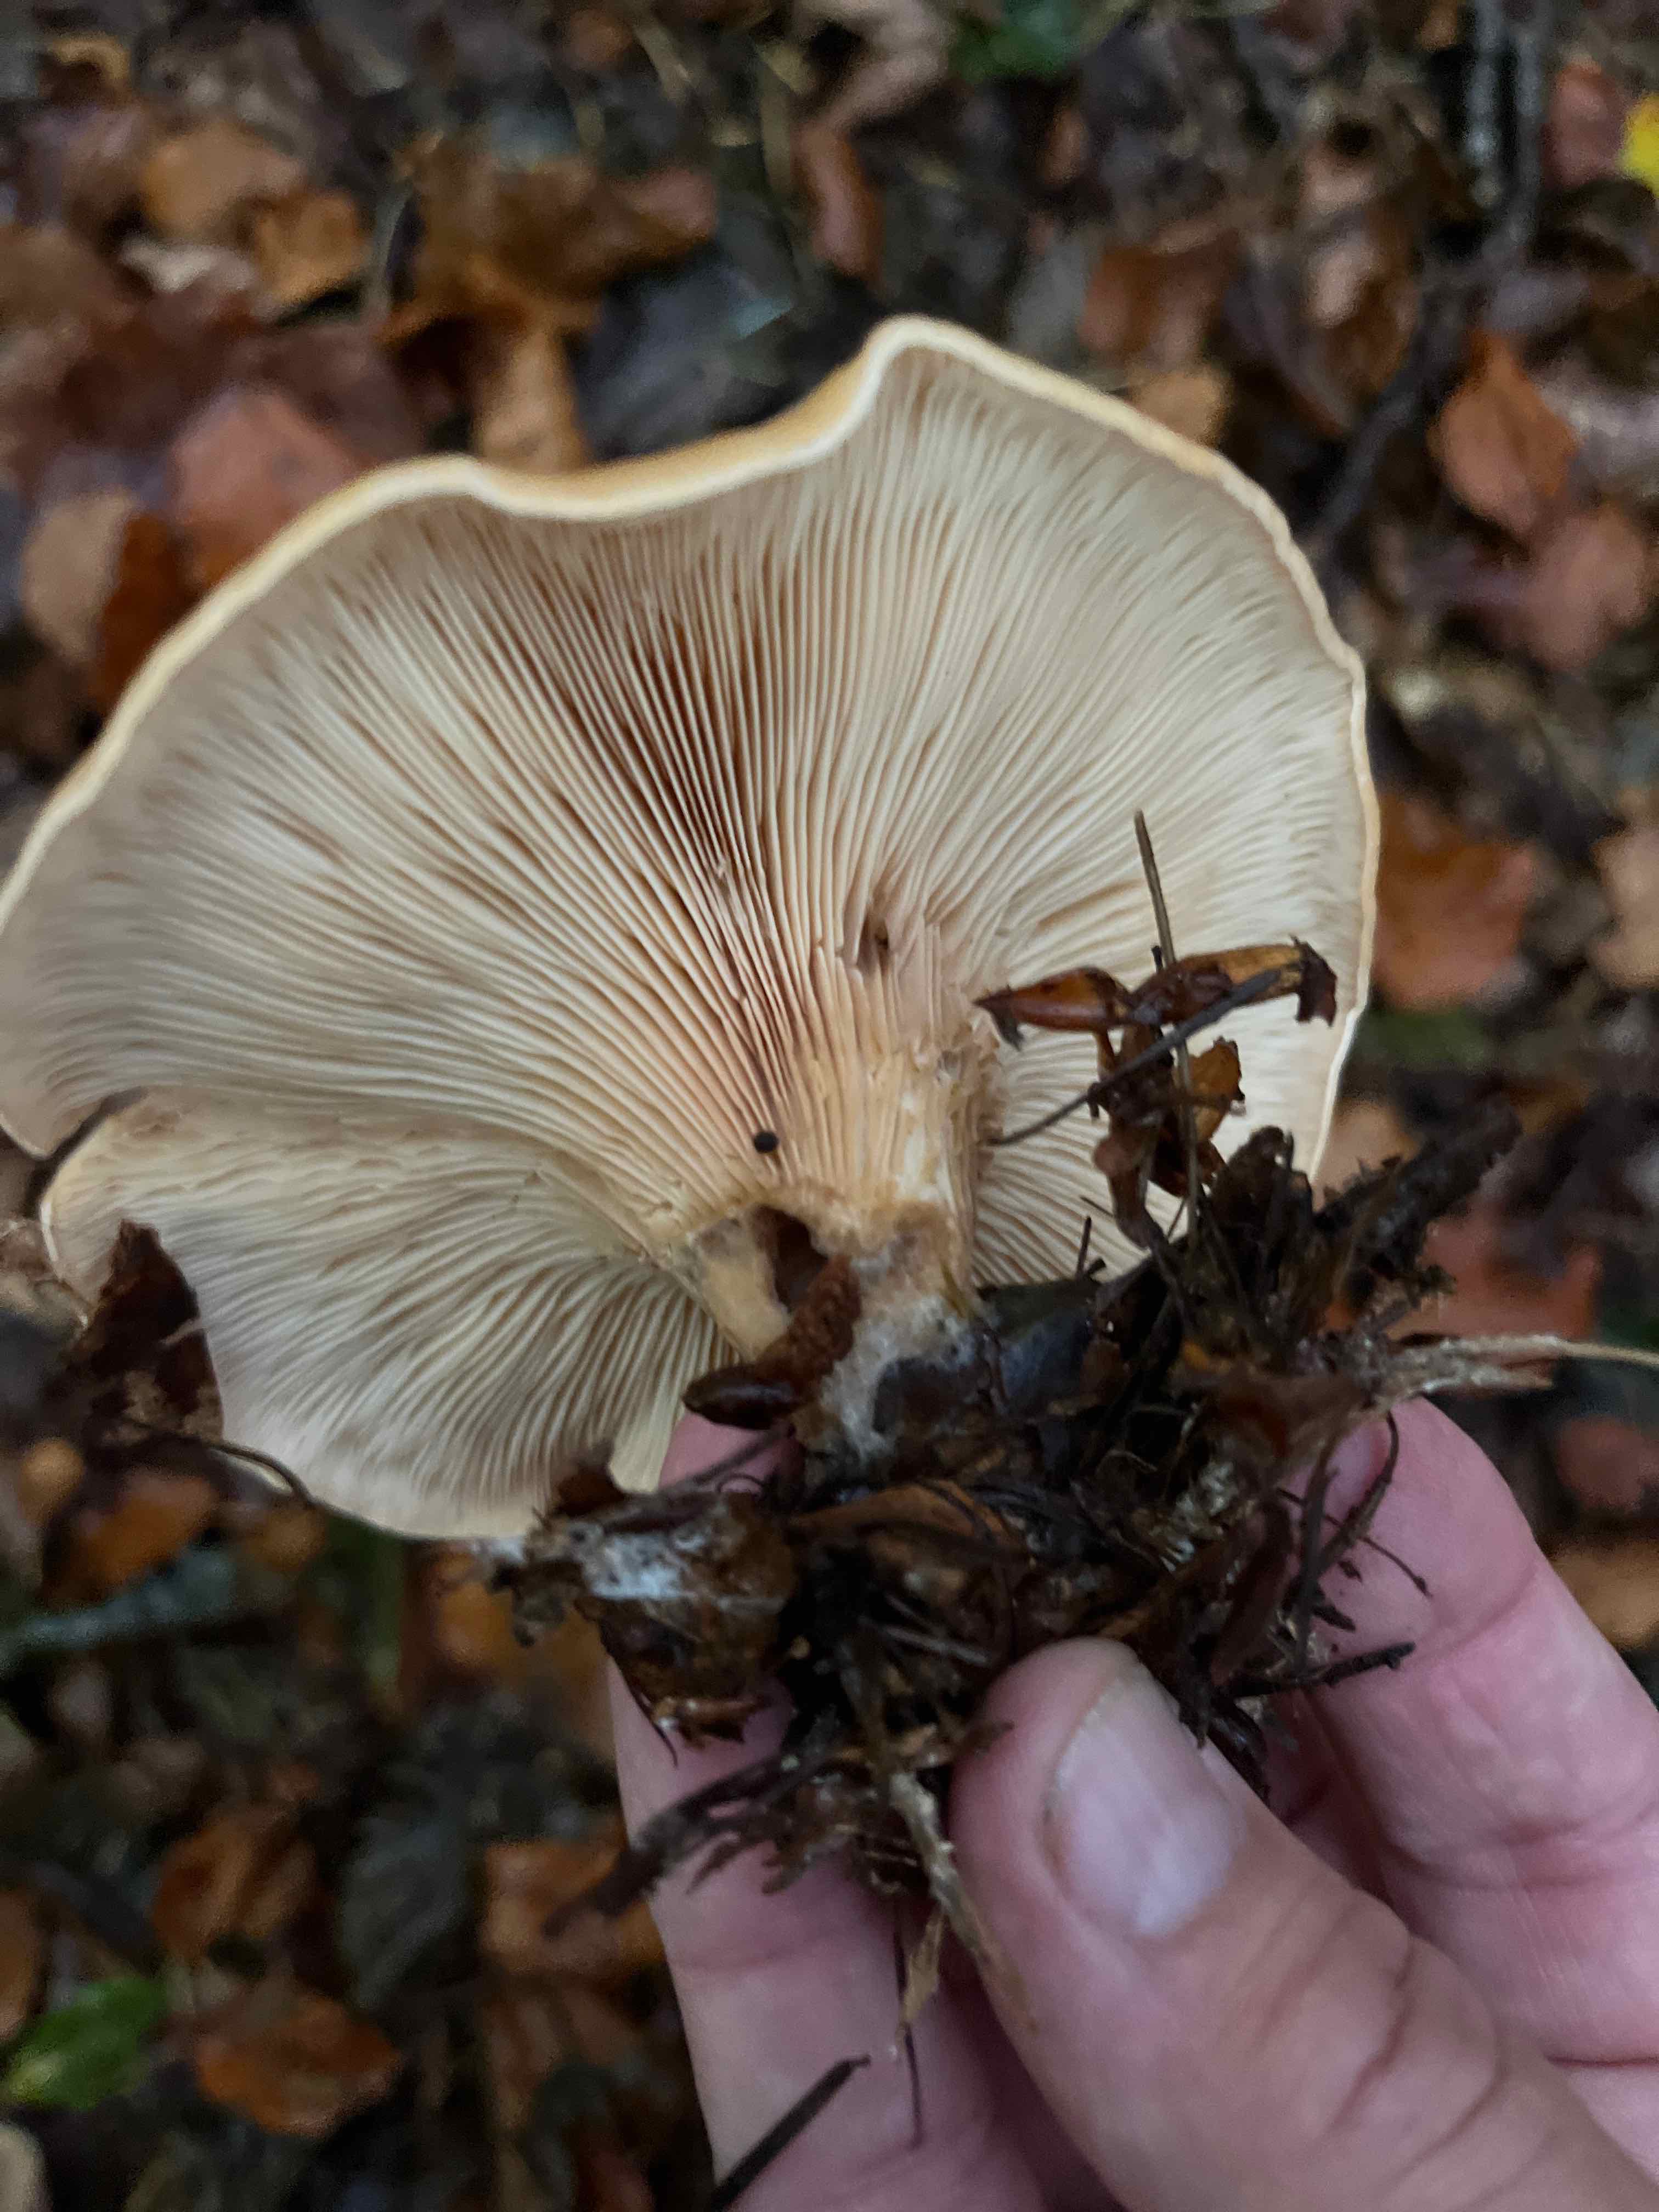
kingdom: Fungi
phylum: Basidiomycota
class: Agaricomycetes
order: Agaricales
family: Tricholomataceae
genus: Paralepista
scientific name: Paralepista flaccida
